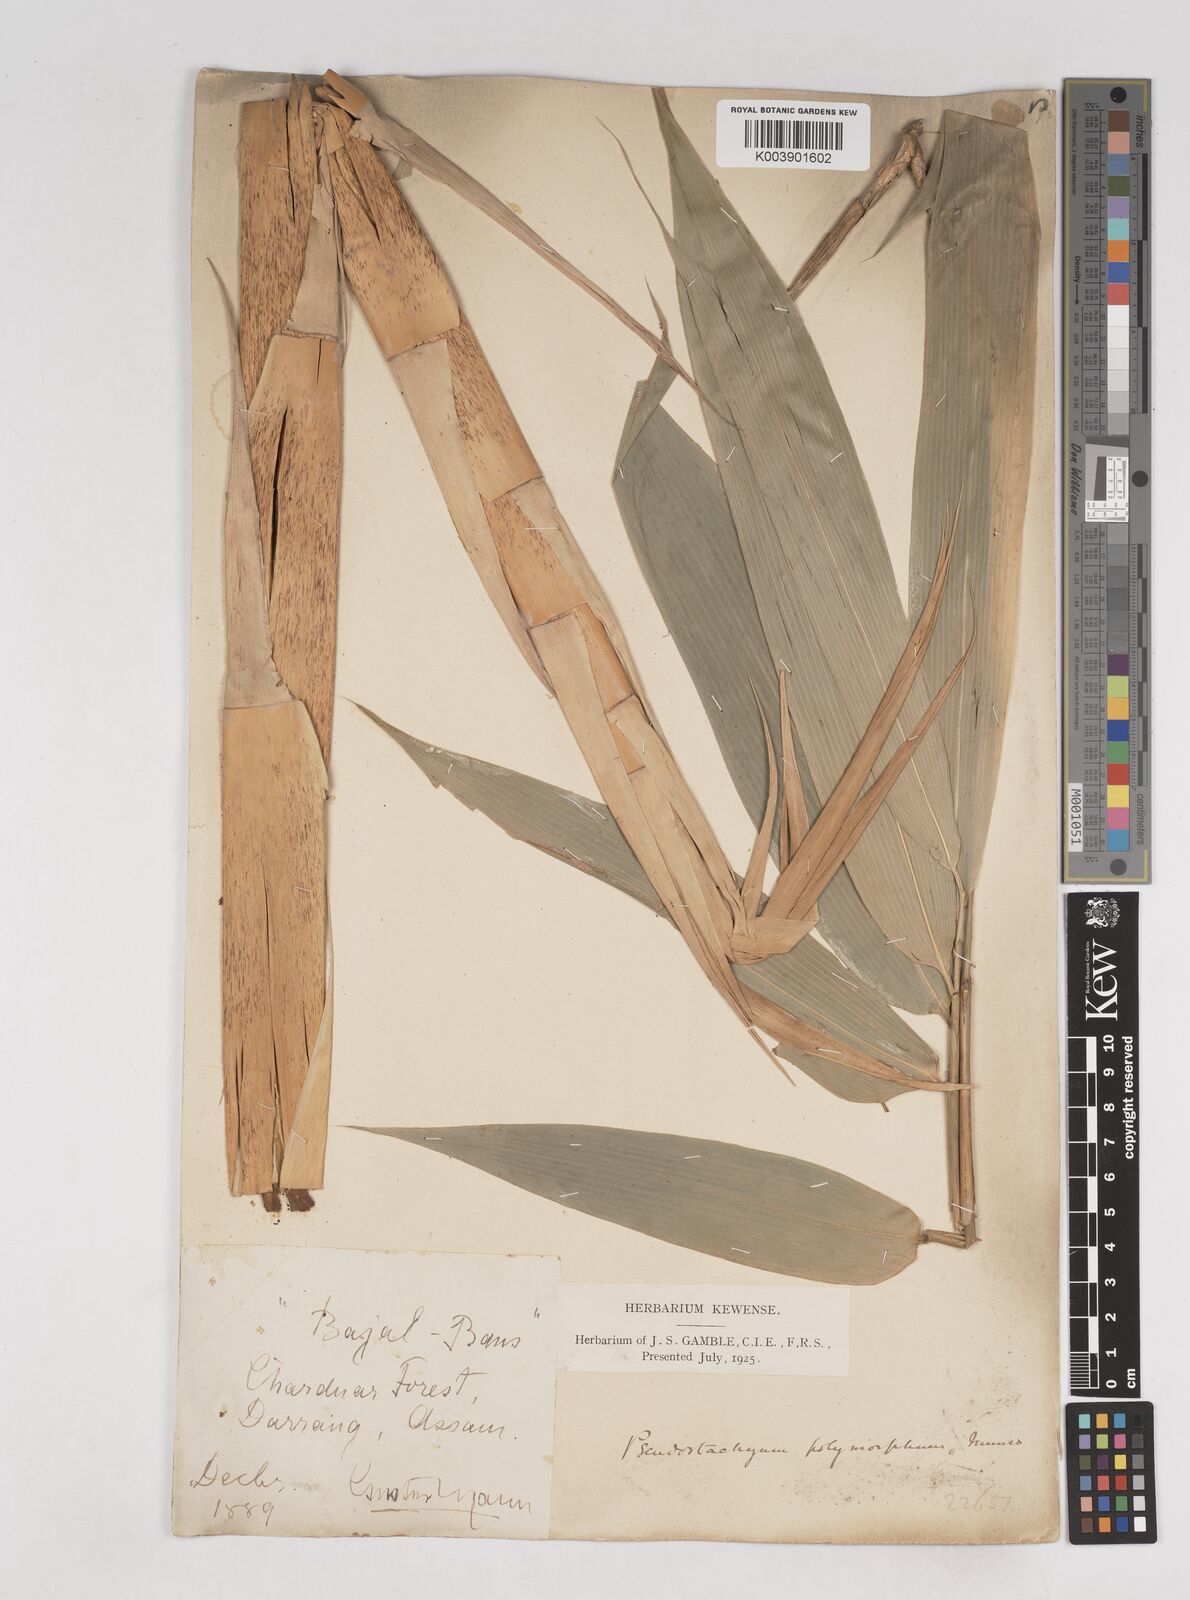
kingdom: Plantae
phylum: Tracheophyta
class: Liliopsida
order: Poales
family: Poaceae
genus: Pseudostachyum
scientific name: Pseudostachyum polymorphum
